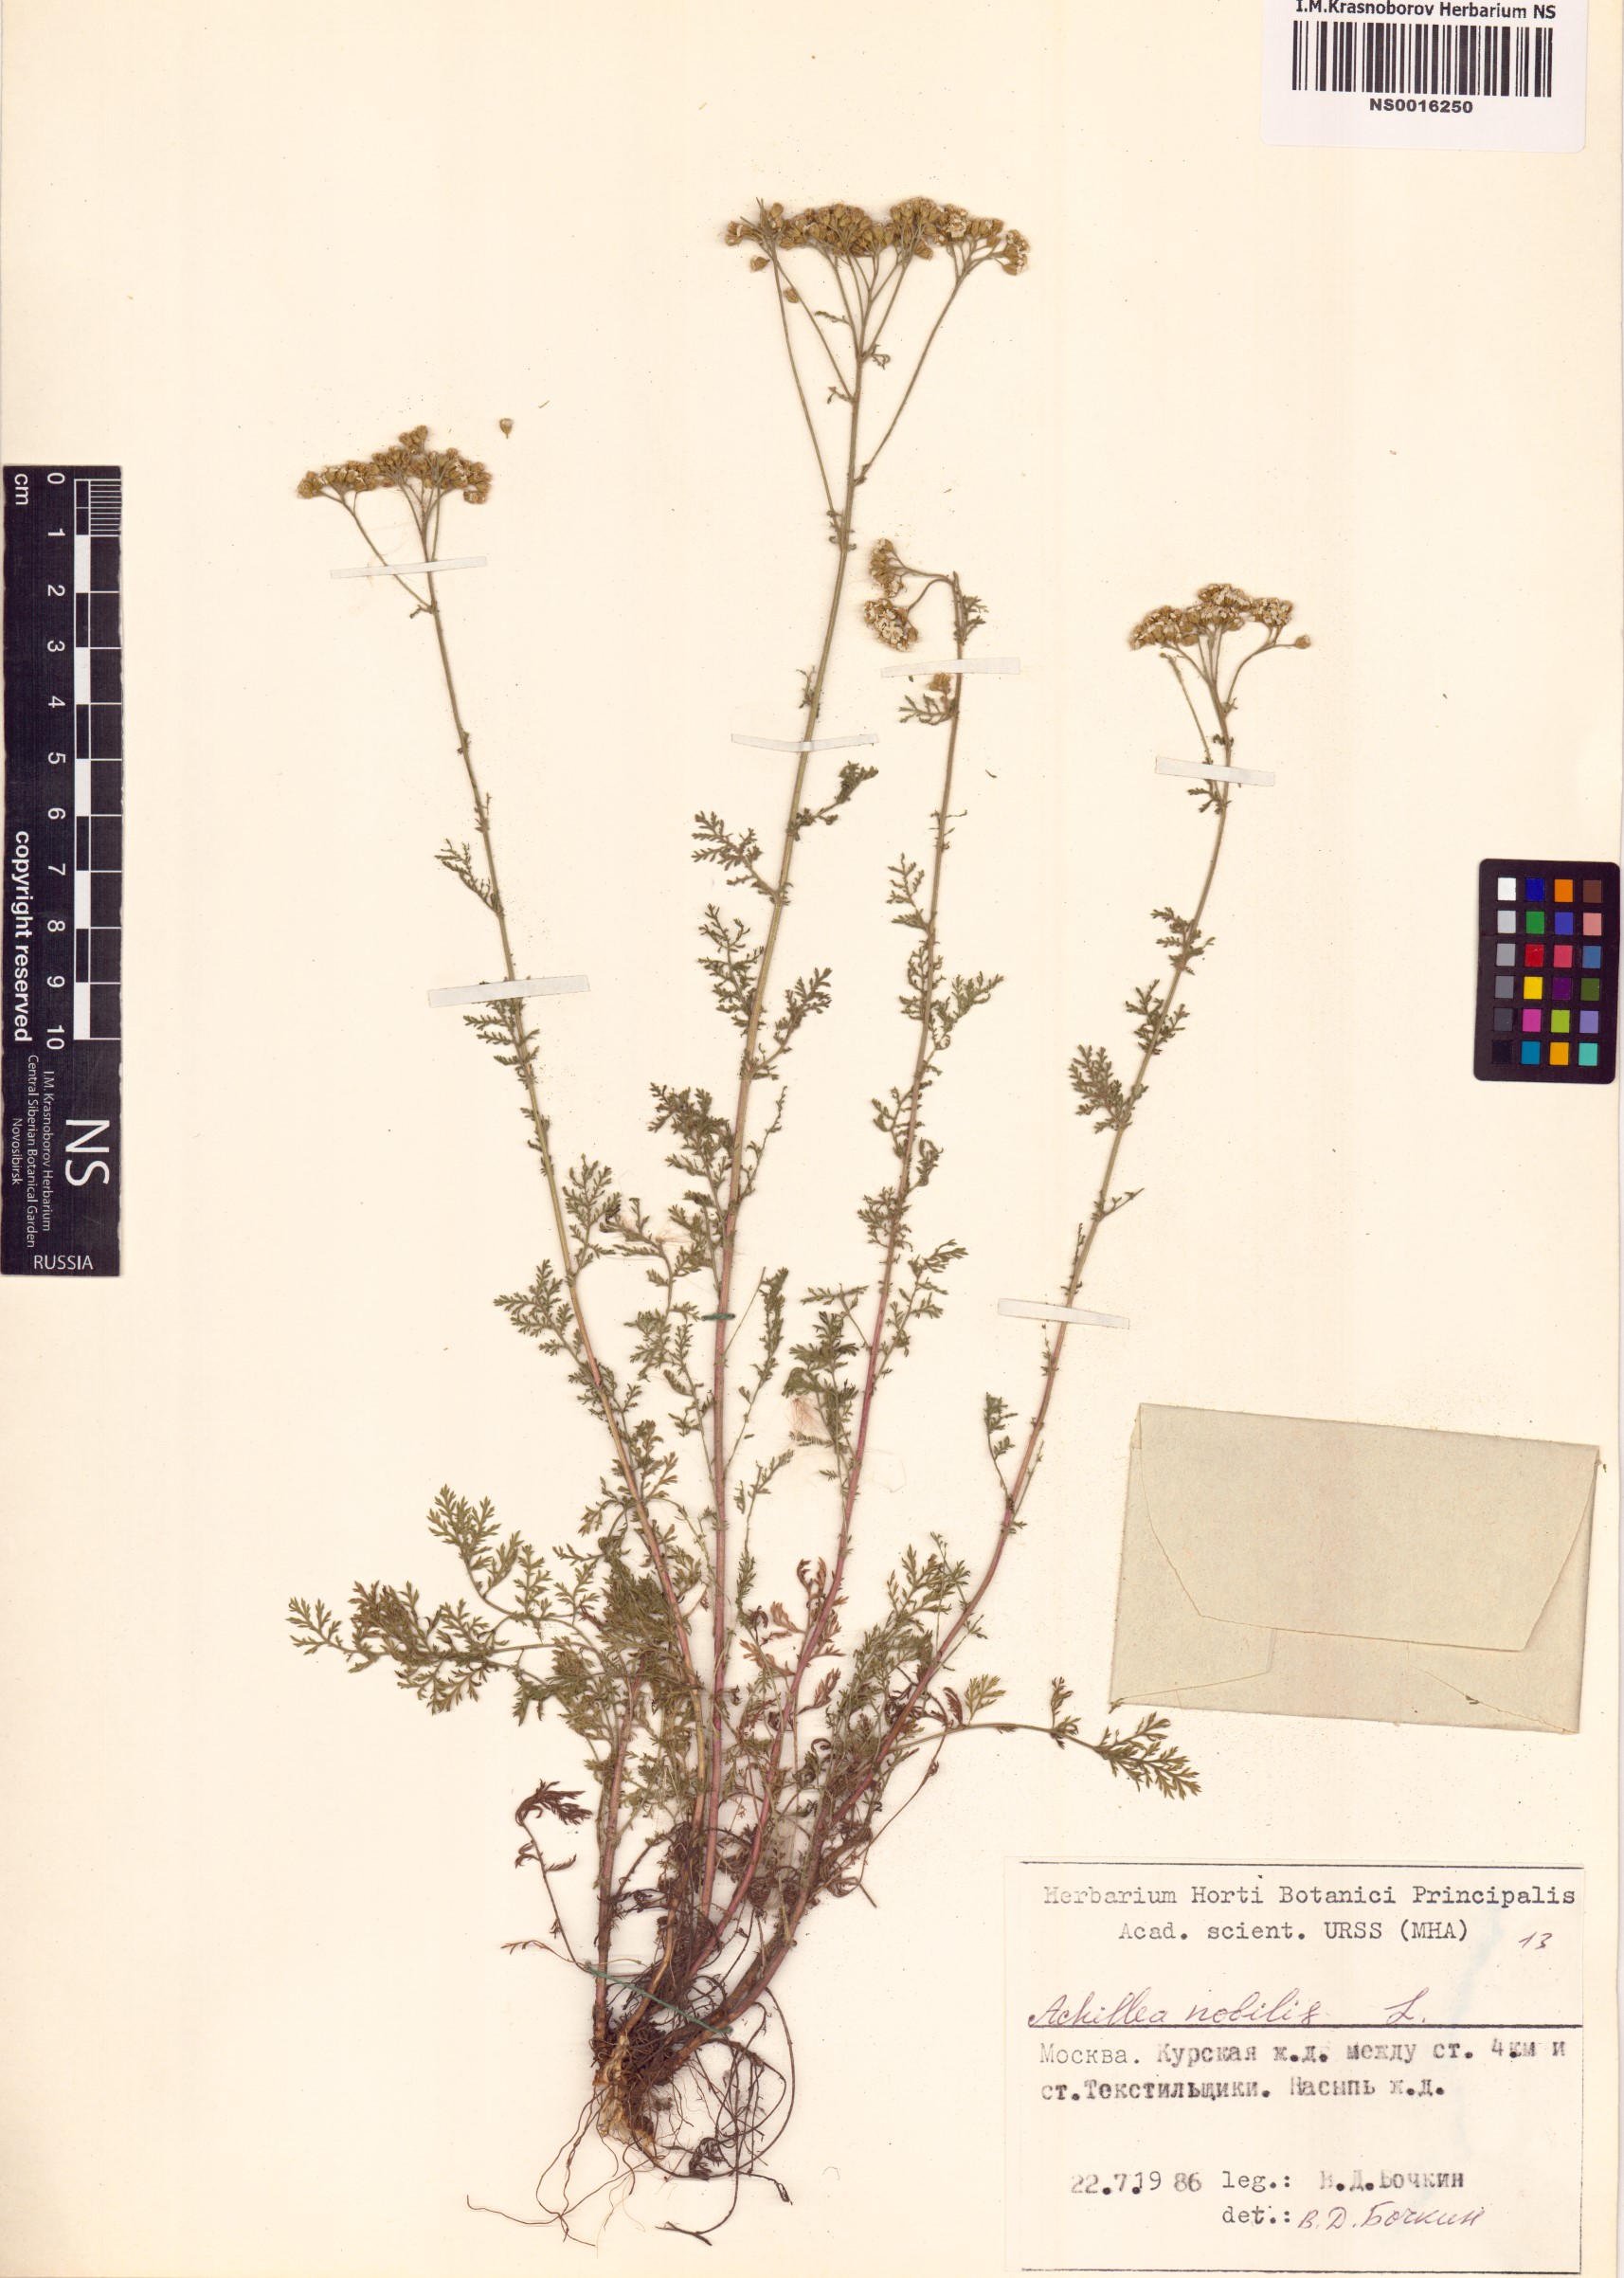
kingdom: Plantae
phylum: Tracheophyta
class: Magnoliopsida
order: Asterales
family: Asteraceae
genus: Achillea
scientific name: Achillea nobilis
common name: Noble yarrow
